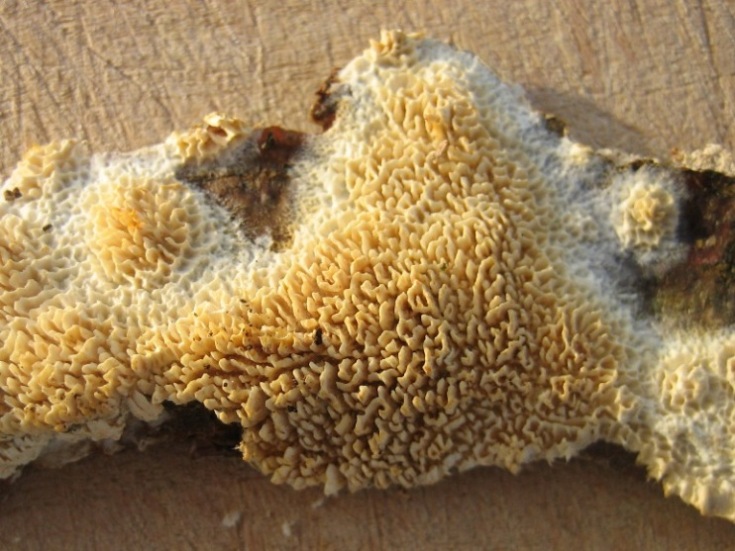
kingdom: Fungi
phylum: Basidiomycota
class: Agaricomycetes
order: Hymenochaetales
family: Schizoporaceae
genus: Schizopora
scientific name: Schizopora paradoxa
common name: hvid tandsvamp
